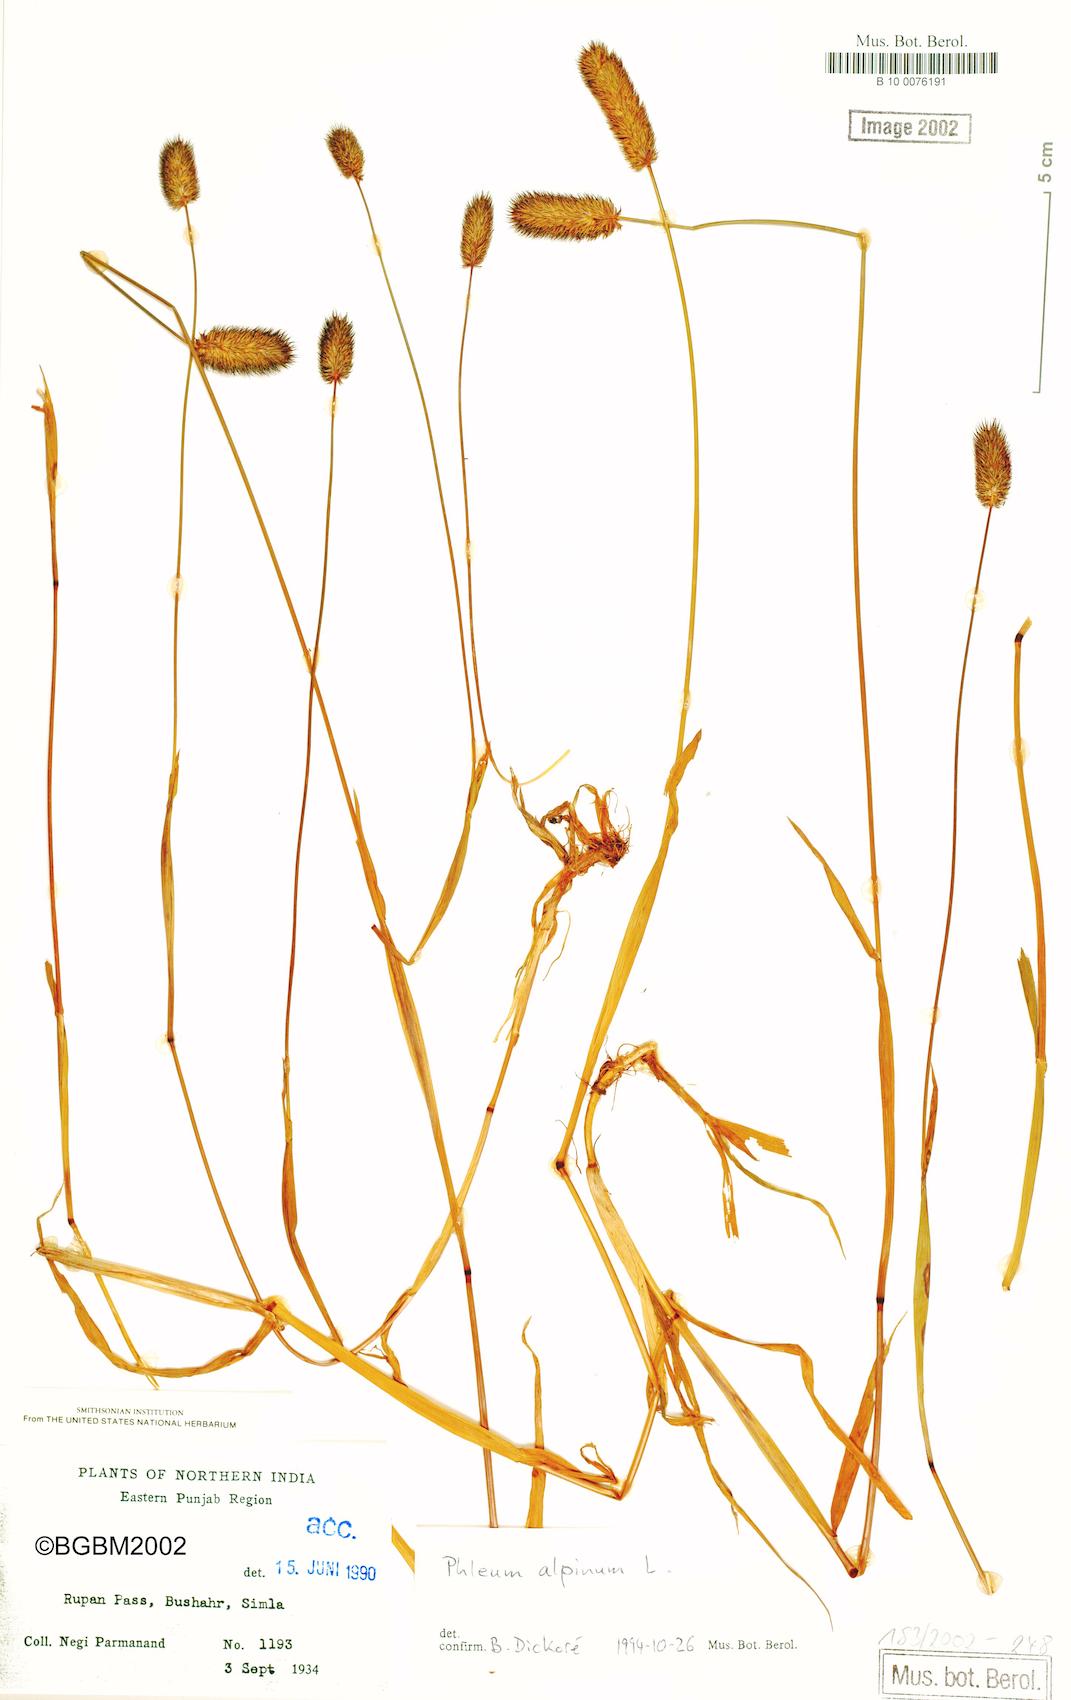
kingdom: Plantae
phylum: Tracheophyta
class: Liliopsida
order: Poales
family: Poaceae
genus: Phleum
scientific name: Phleum alpinum
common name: Alpine cat's-tail
